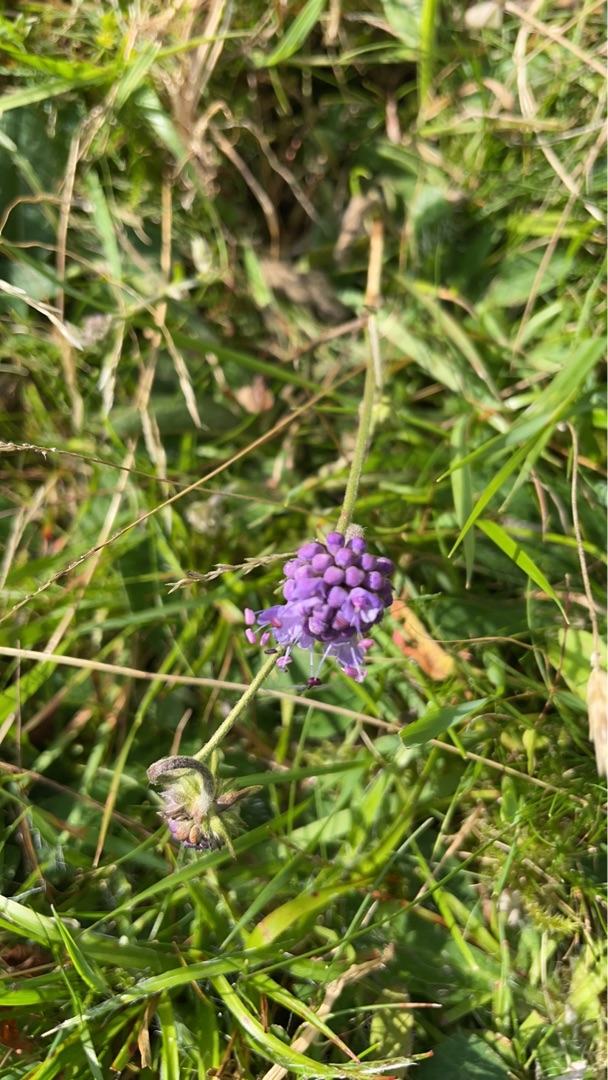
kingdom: Plantae
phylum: Tracheophyta
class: Magnoliopsida
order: Dipsacales
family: Caprifoliaceae
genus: Succisa
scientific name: Succisa pratensis
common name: Djævelsbid
